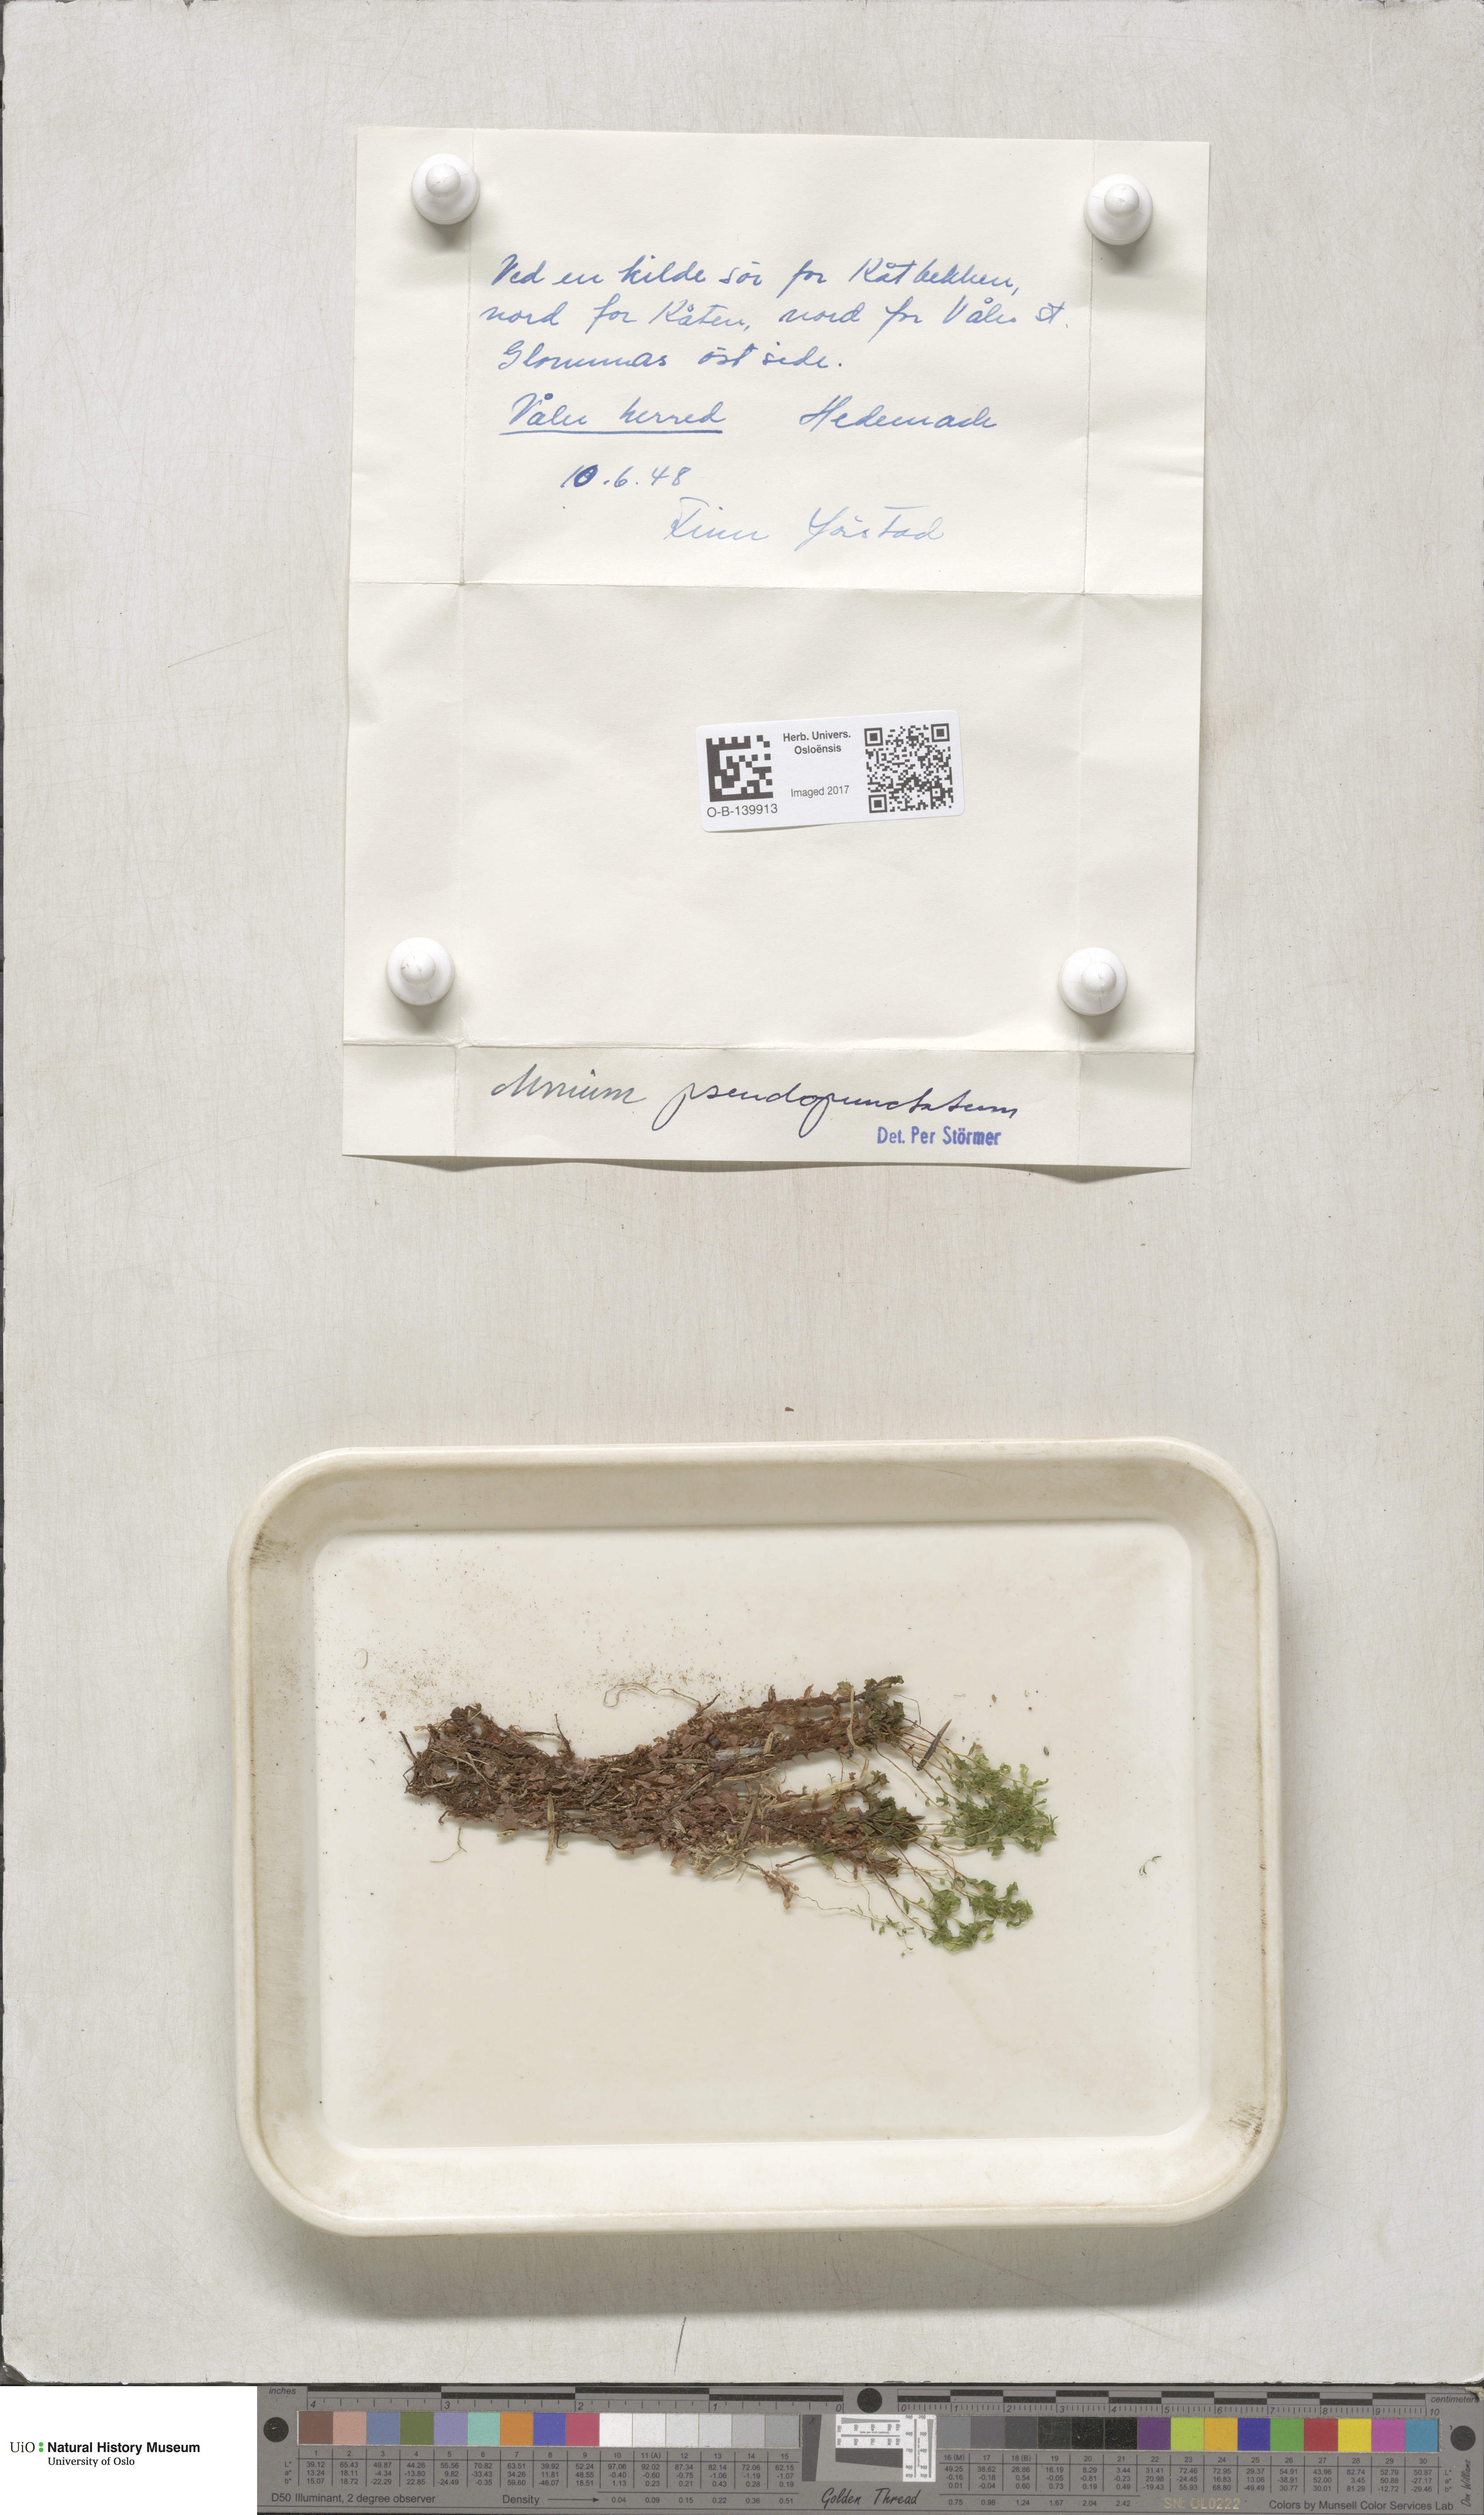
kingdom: Plantae
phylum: Bryophyta
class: Bryopsida
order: Bryales
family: Mniaceae
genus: Rhizomnium
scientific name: Rhizomnium pseudopunctatum
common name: Felted leafy moss
